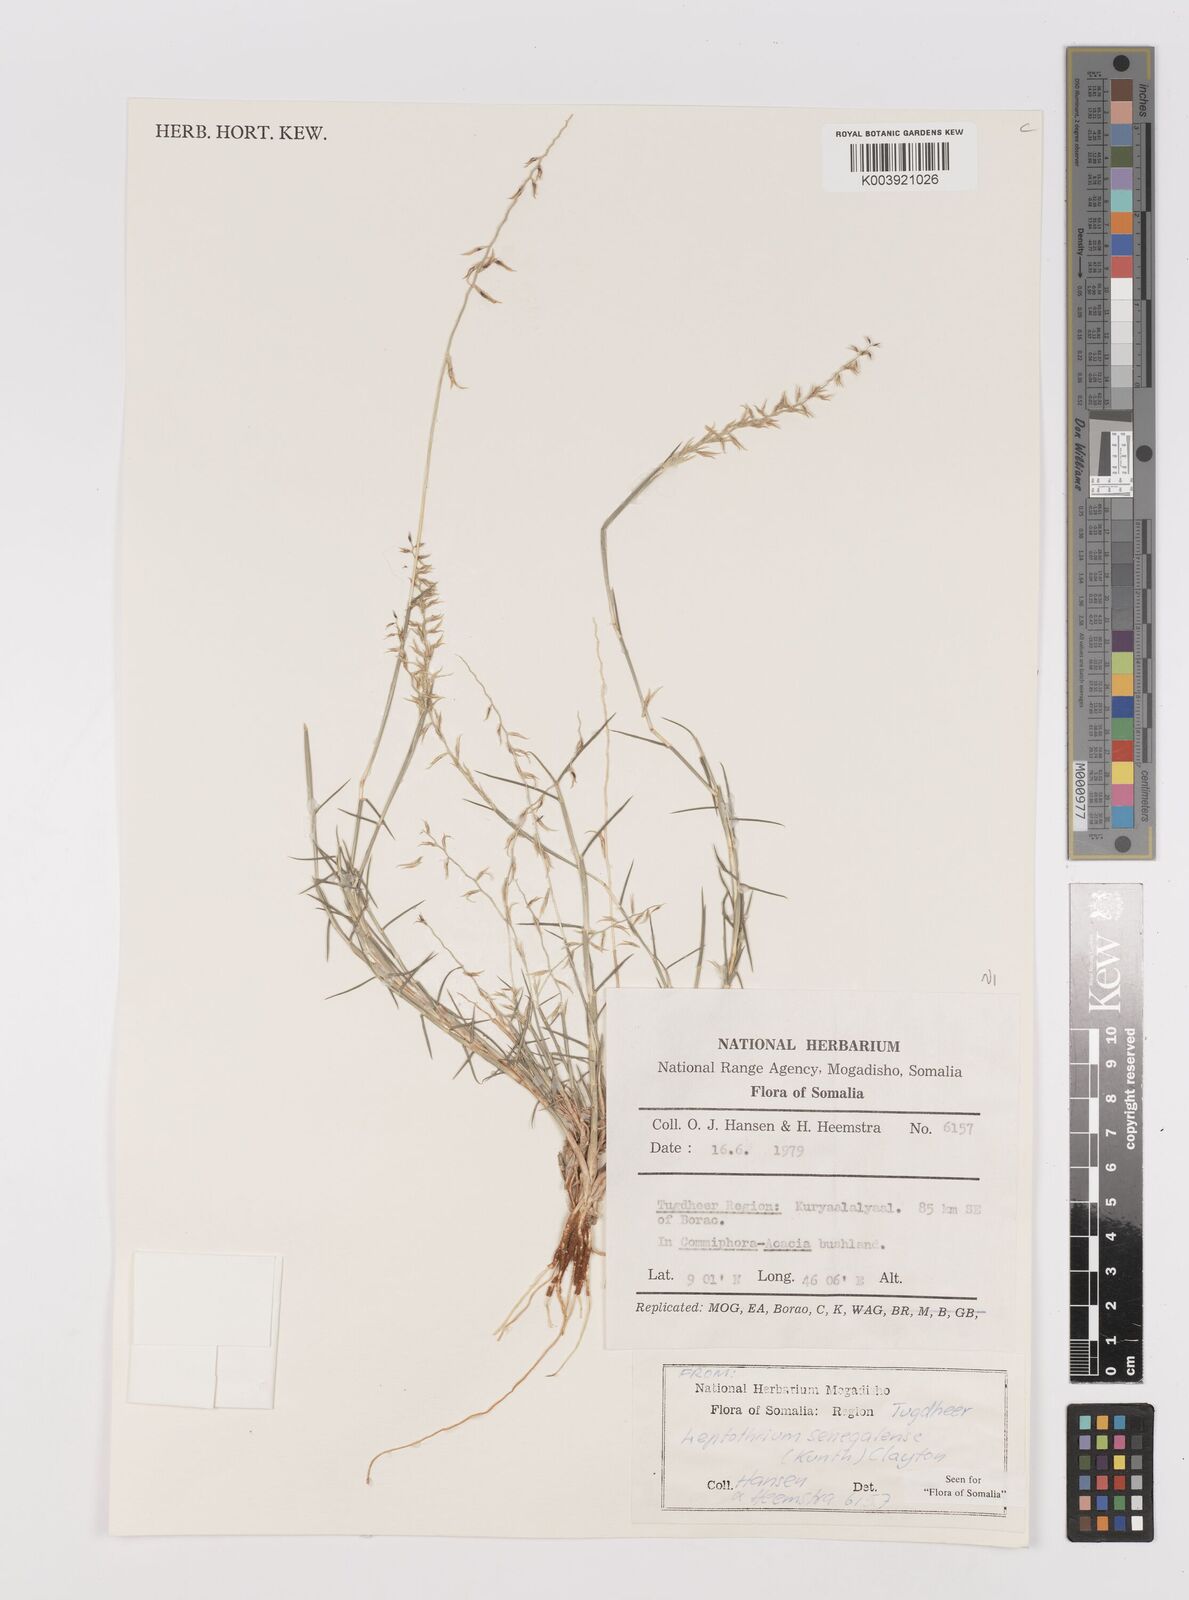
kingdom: Plantae
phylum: Tracheophyta
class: Liliopsida
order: Poales
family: Poaceae
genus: Leptothrium
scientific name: Leptothrium senegalense
